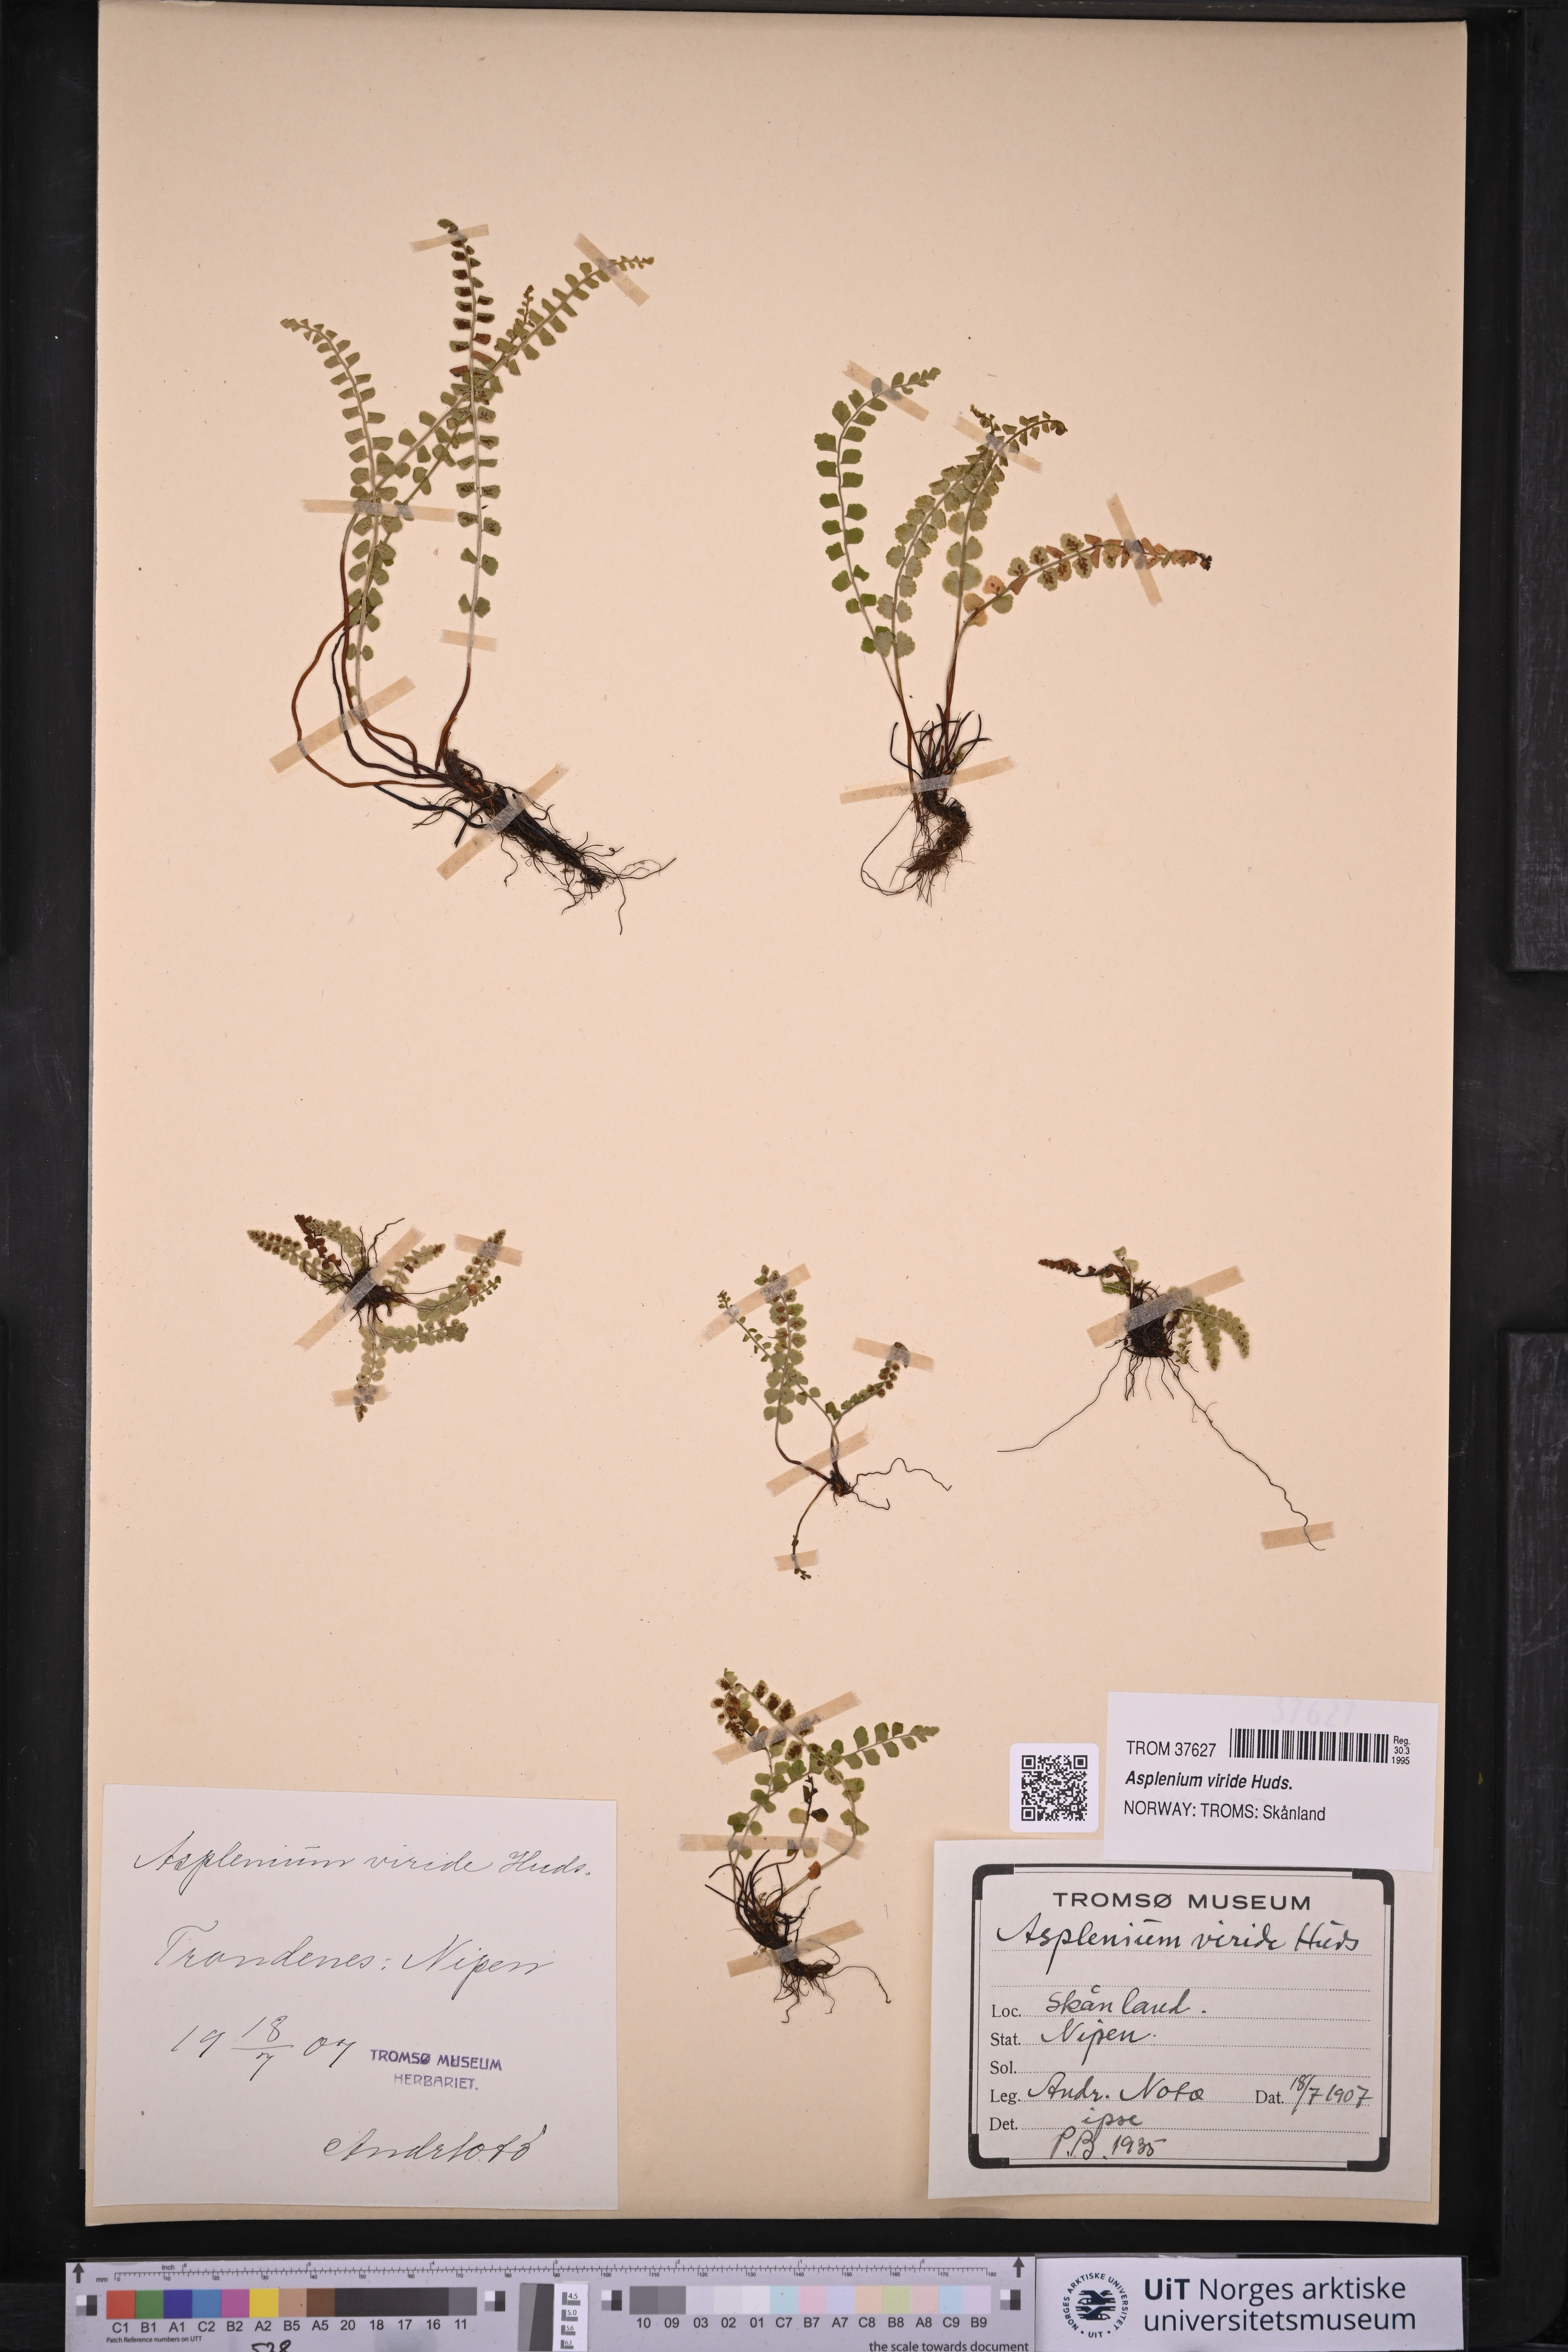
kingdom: Plantae
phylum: Tracheophyta
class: Polypodiopsida
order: Polypodiales
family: Aspleniaceae
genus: Asplenium
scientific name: Asplenium viride
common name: Green spleenwort
